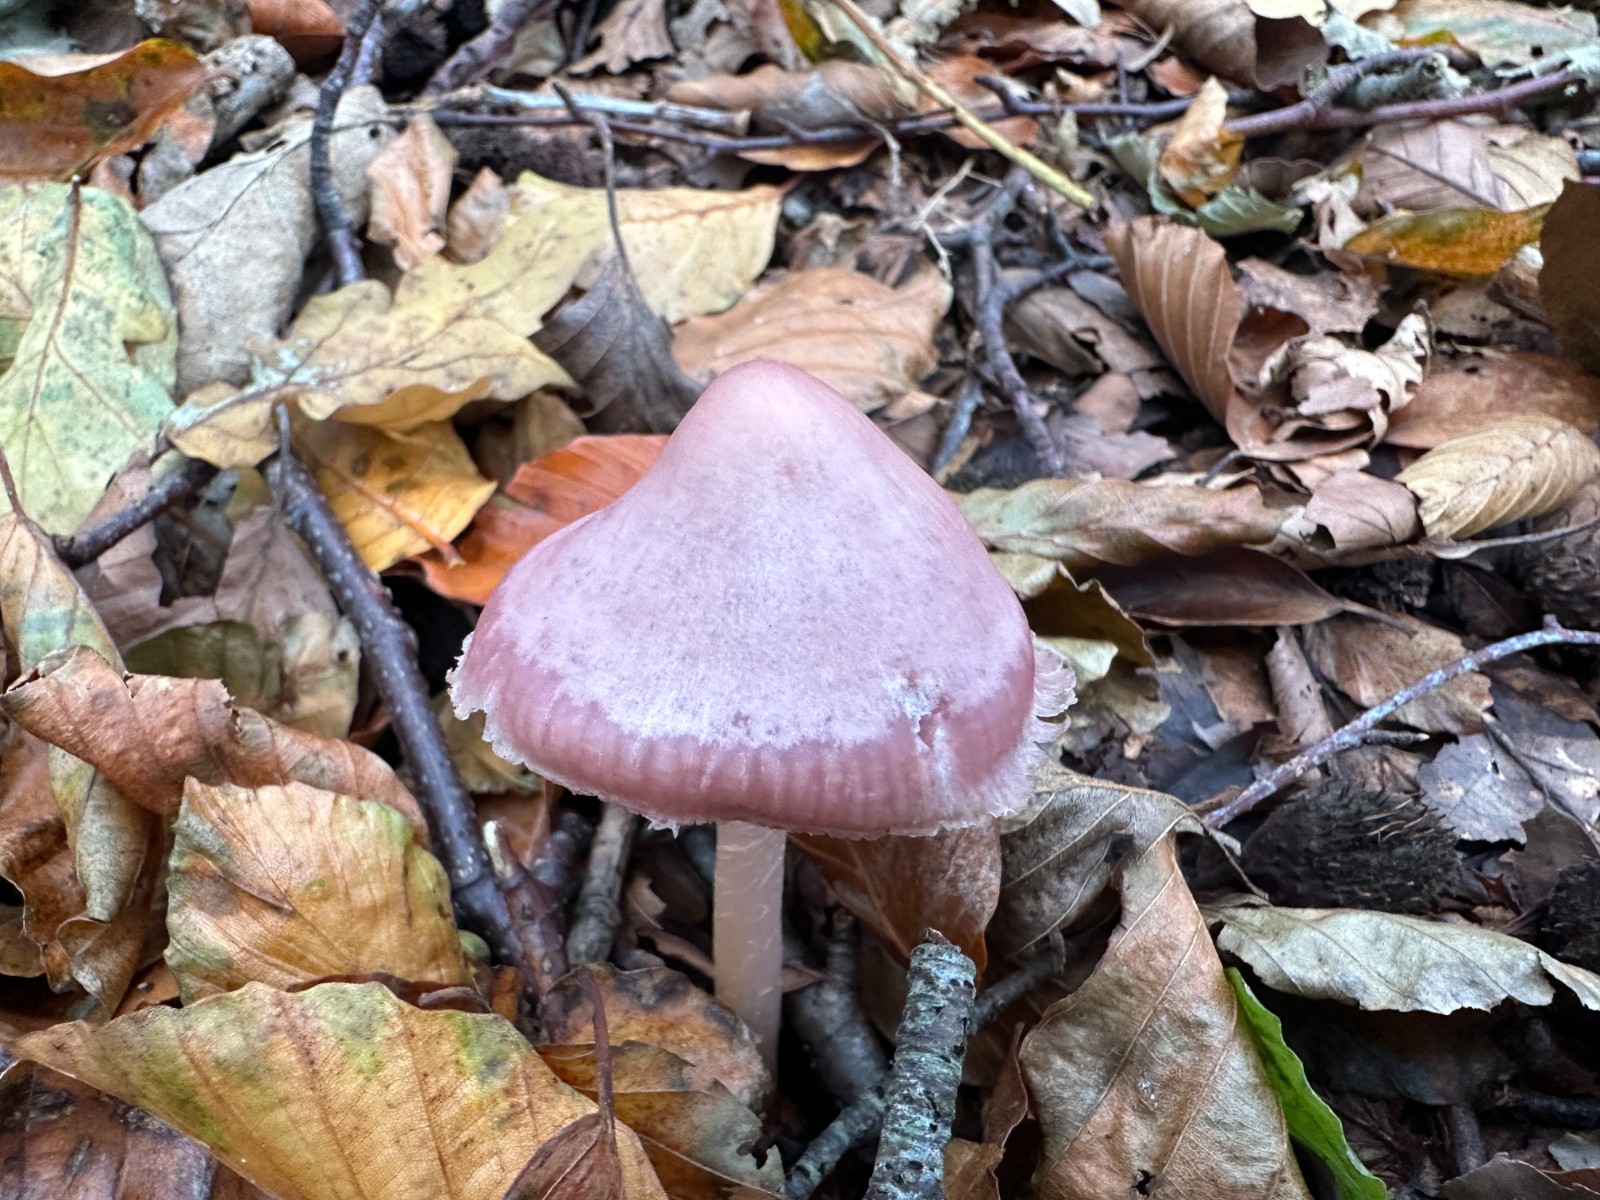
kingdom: Fungi
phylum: Basidiomycota
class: Agaricomycetes
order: Agaricales
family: Mycenaceae
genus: Mycena
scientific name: Mycena rosea
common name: rosa huesvamp
